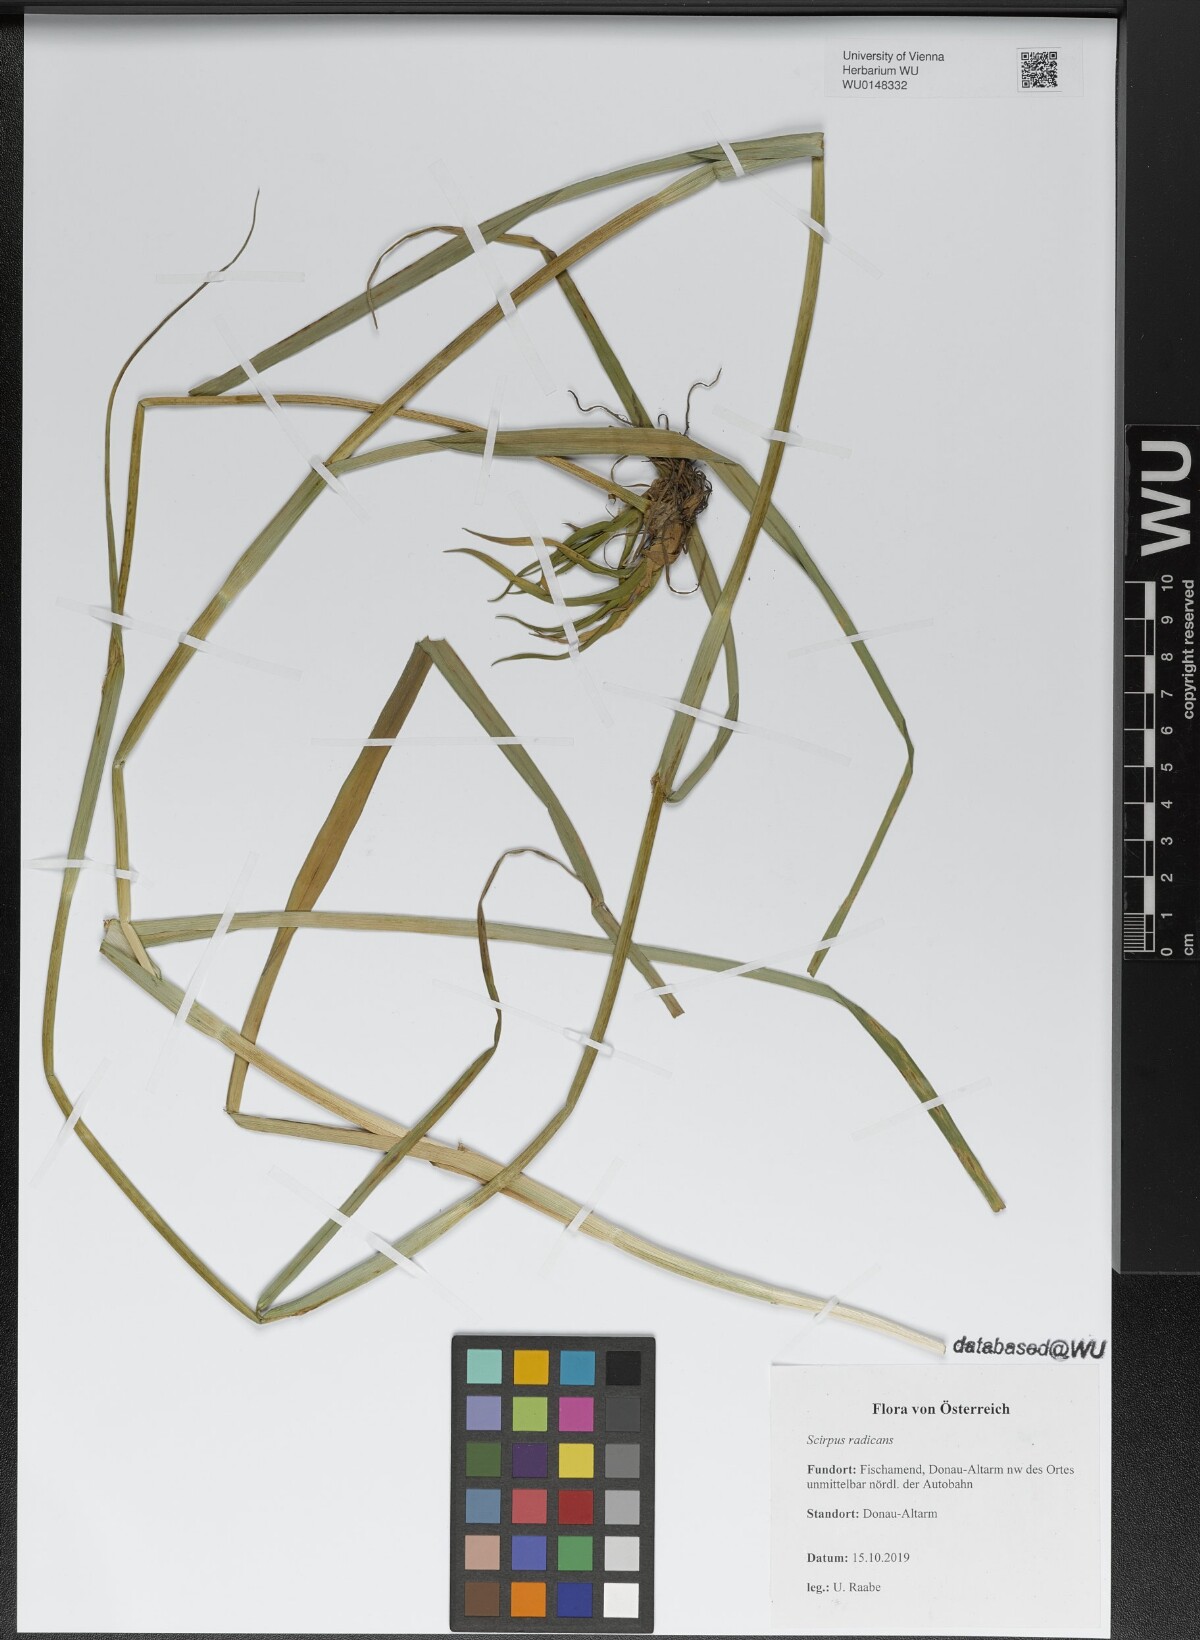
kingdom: Plantae
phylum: Tracheophyta
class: Liliopsida
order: Poales
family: Cyperaceae
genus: Scirpus
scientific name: Scirpus radicans
